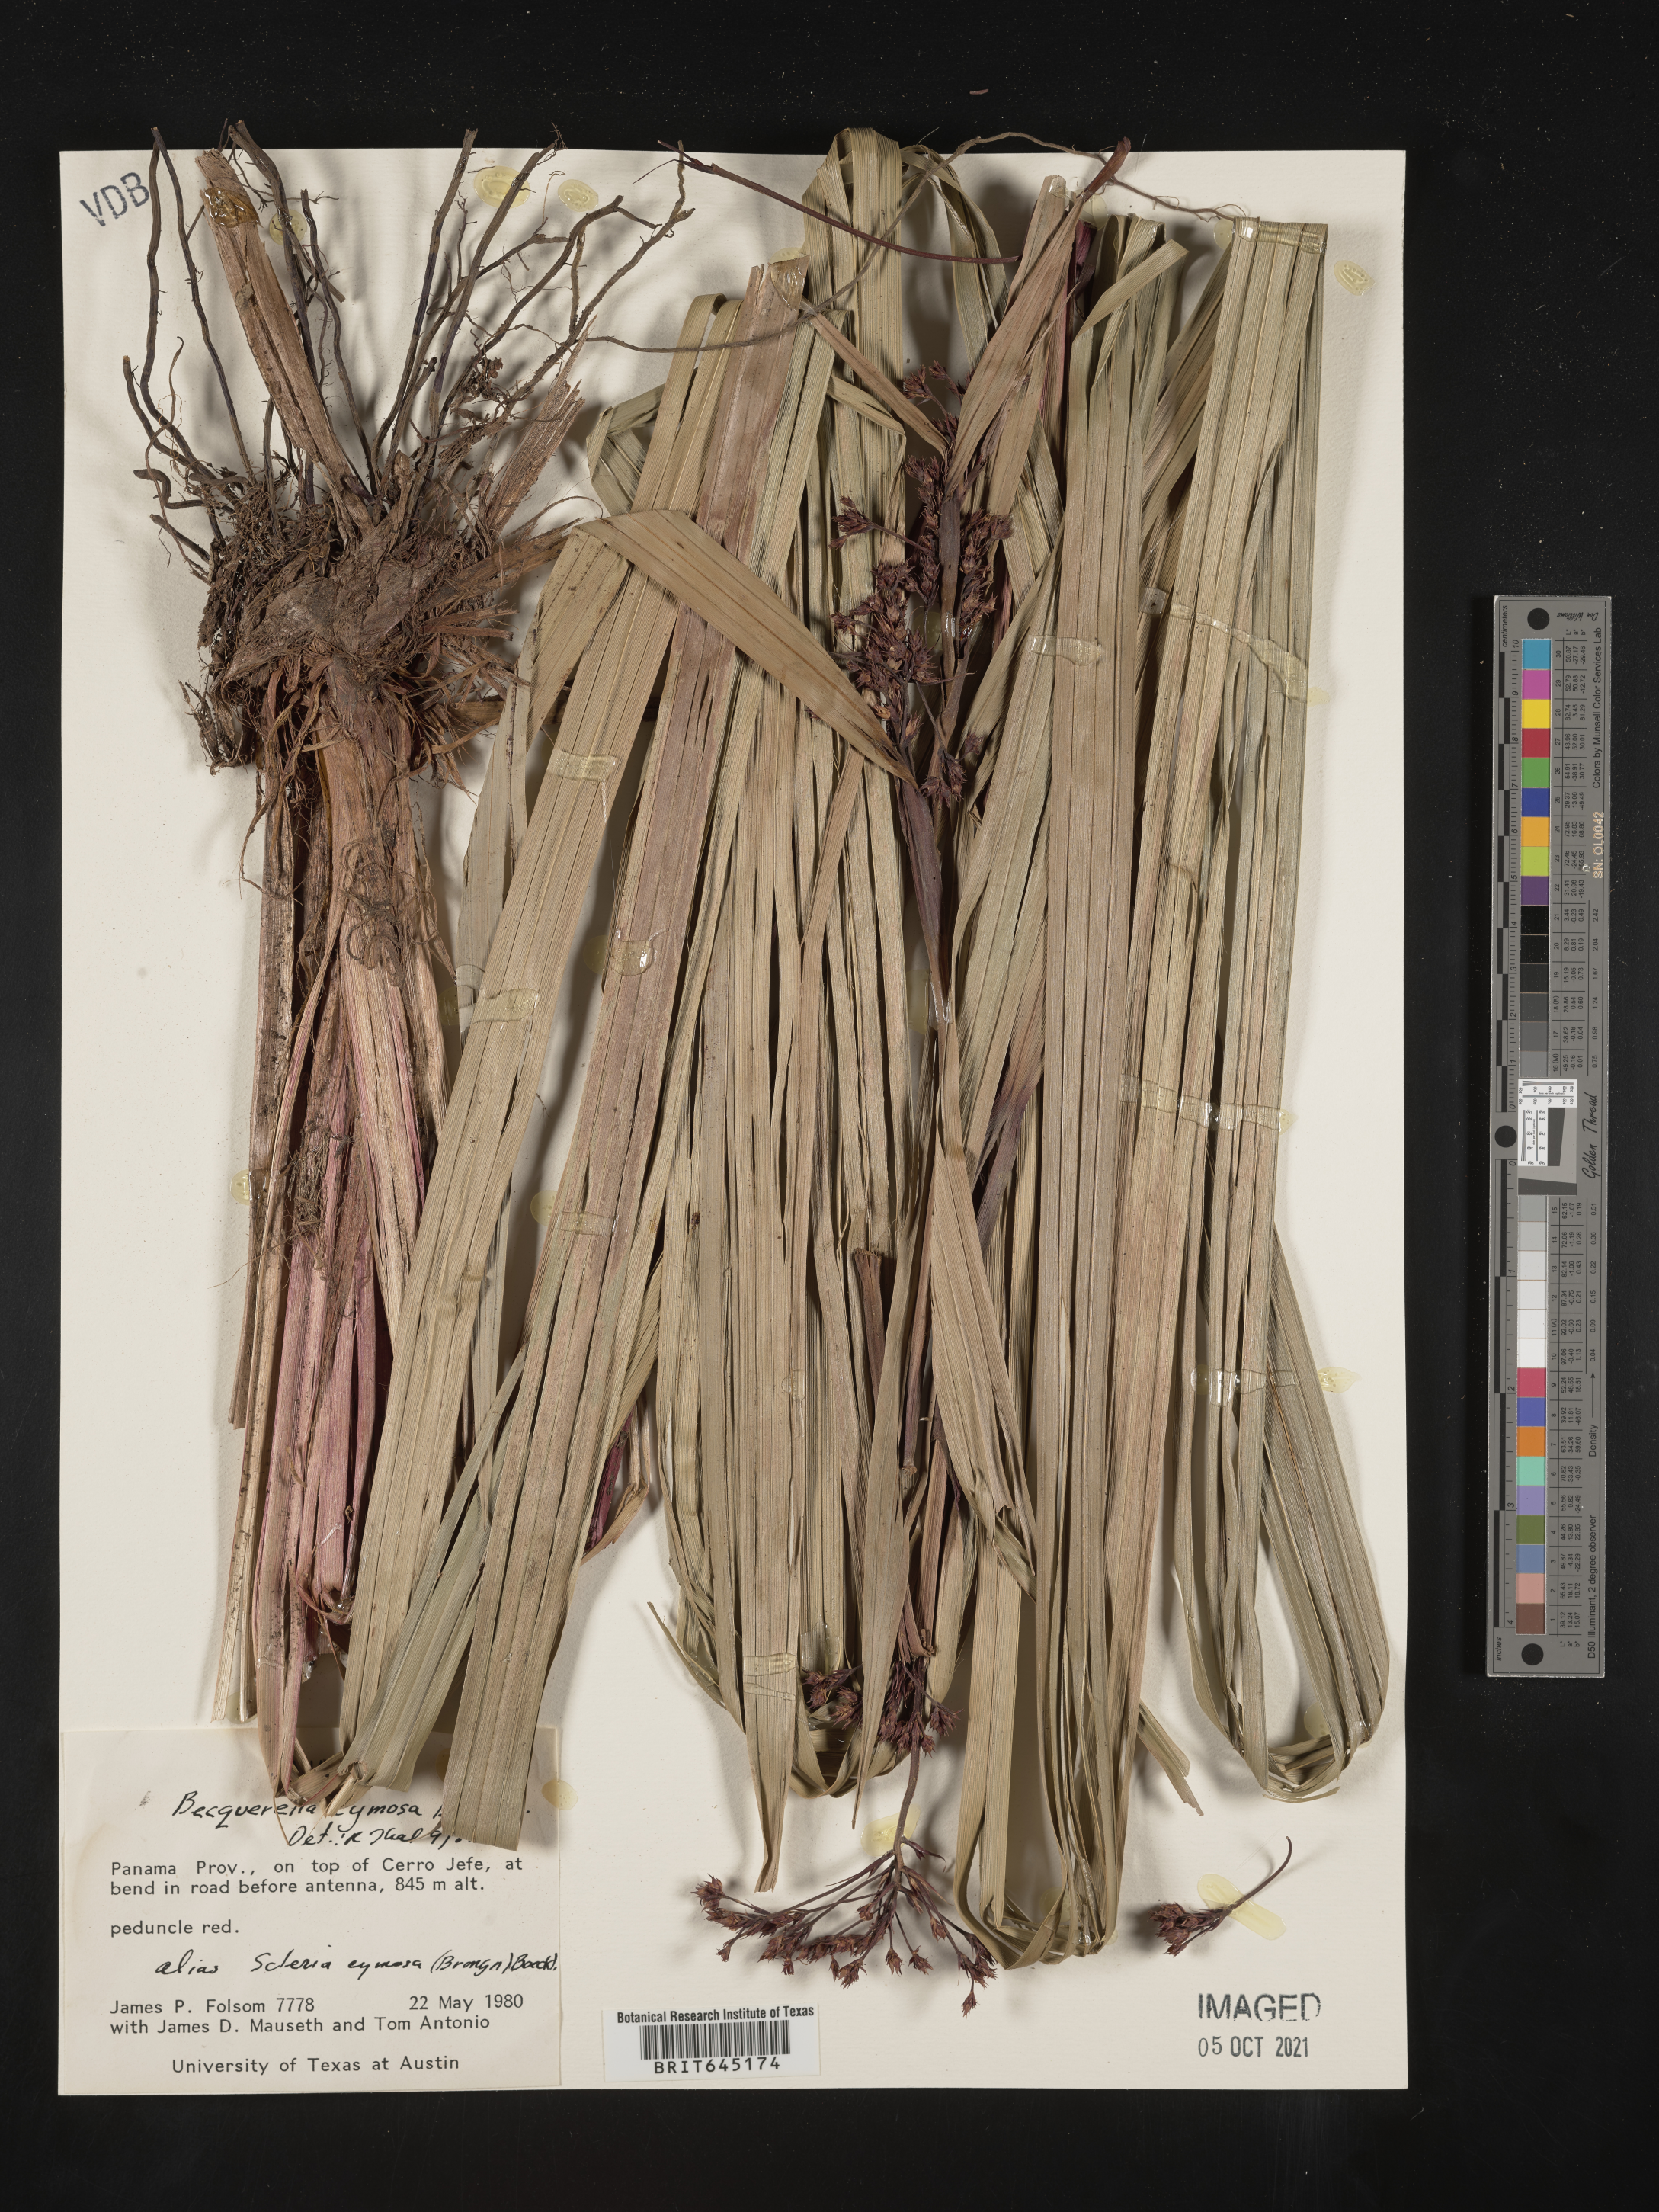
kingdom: Plantae
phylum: Tracheophyta
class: Liliopsida
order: Poales
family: Cyperaceae
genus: Becquerelia
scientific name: Becquerelia merkeliana
